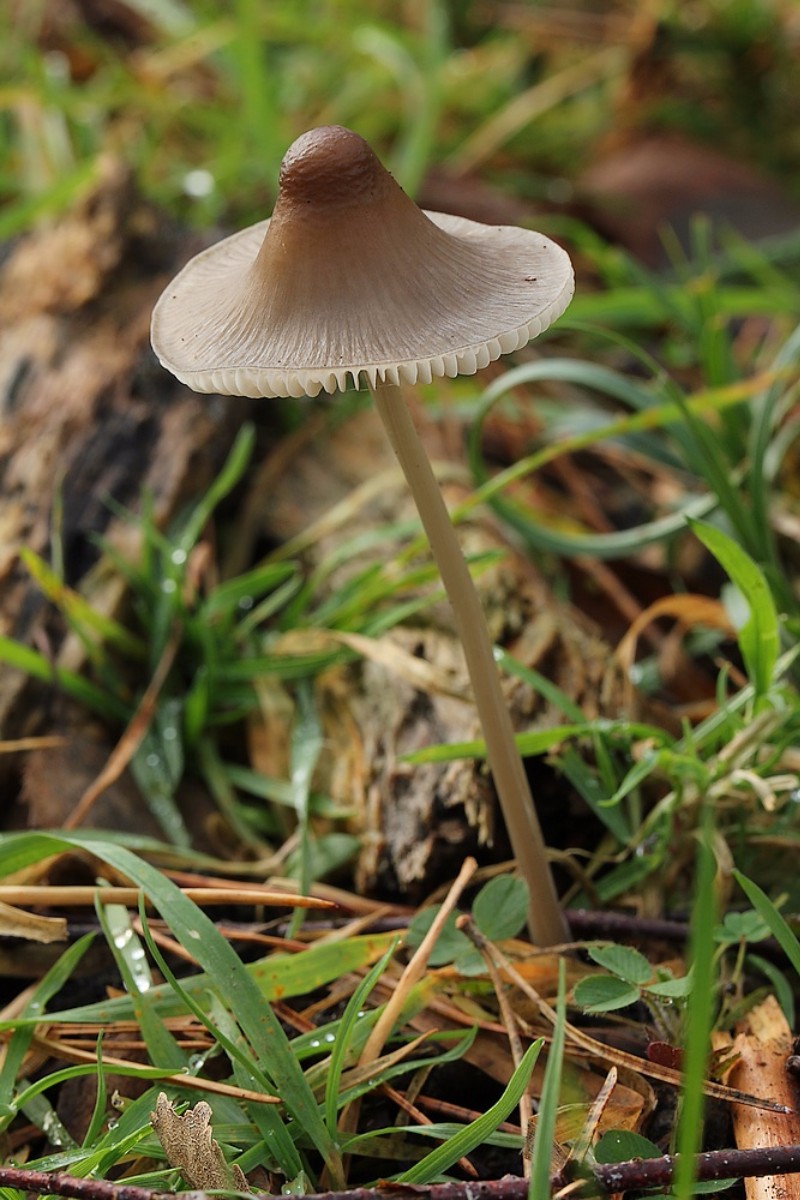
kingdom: Fungi
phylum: Basidiomycota
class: Agaricomycetes
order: Agaricales
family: Mycenaceae
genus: Mycena
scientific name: Mycena polygramma
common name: mangestribet huesvamp
